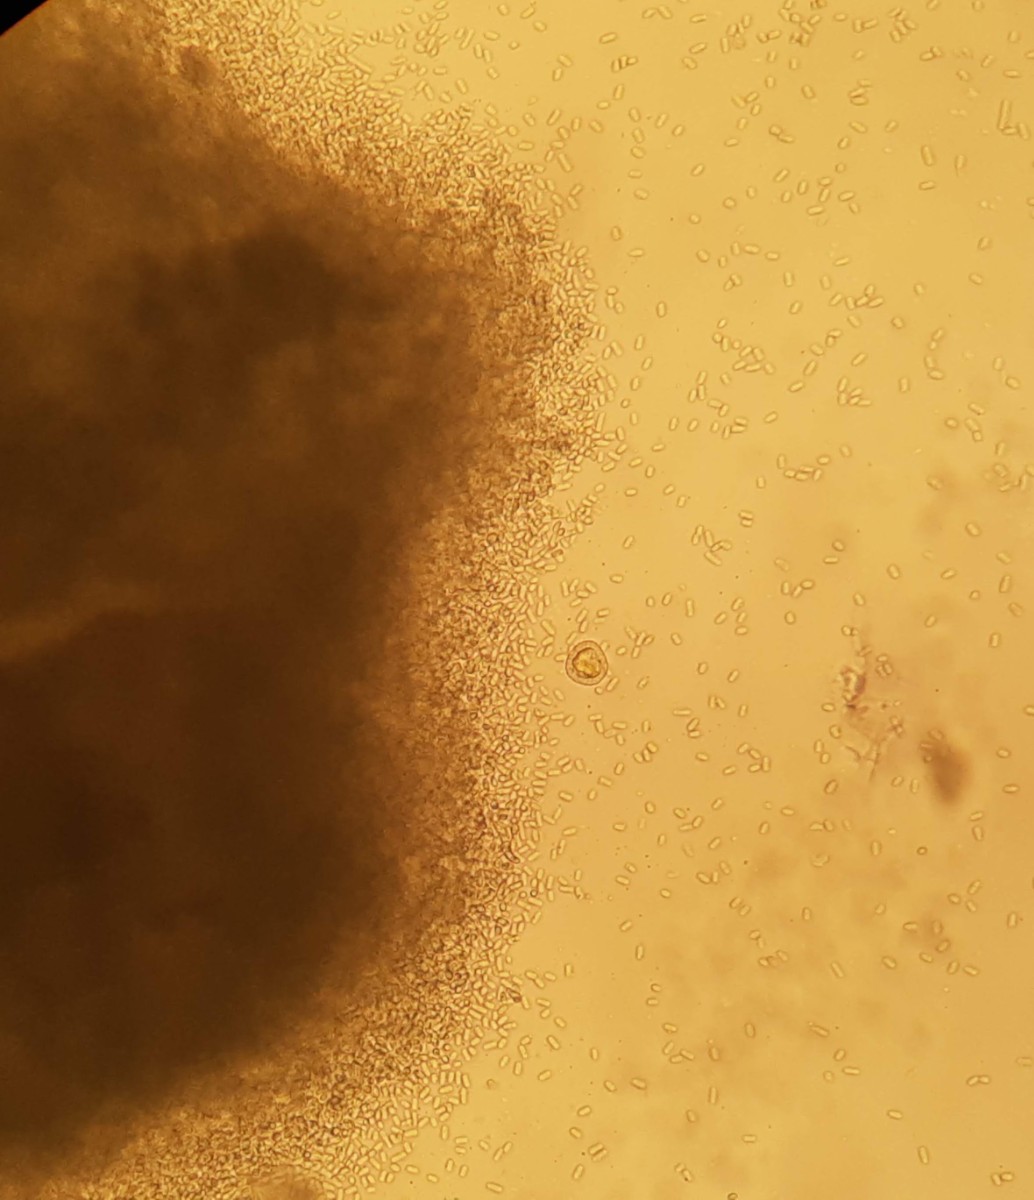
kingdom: Fungi
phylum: Ascomycota
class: Lecanoromycetes
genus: Trullula
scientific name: Trullula melanochlora
